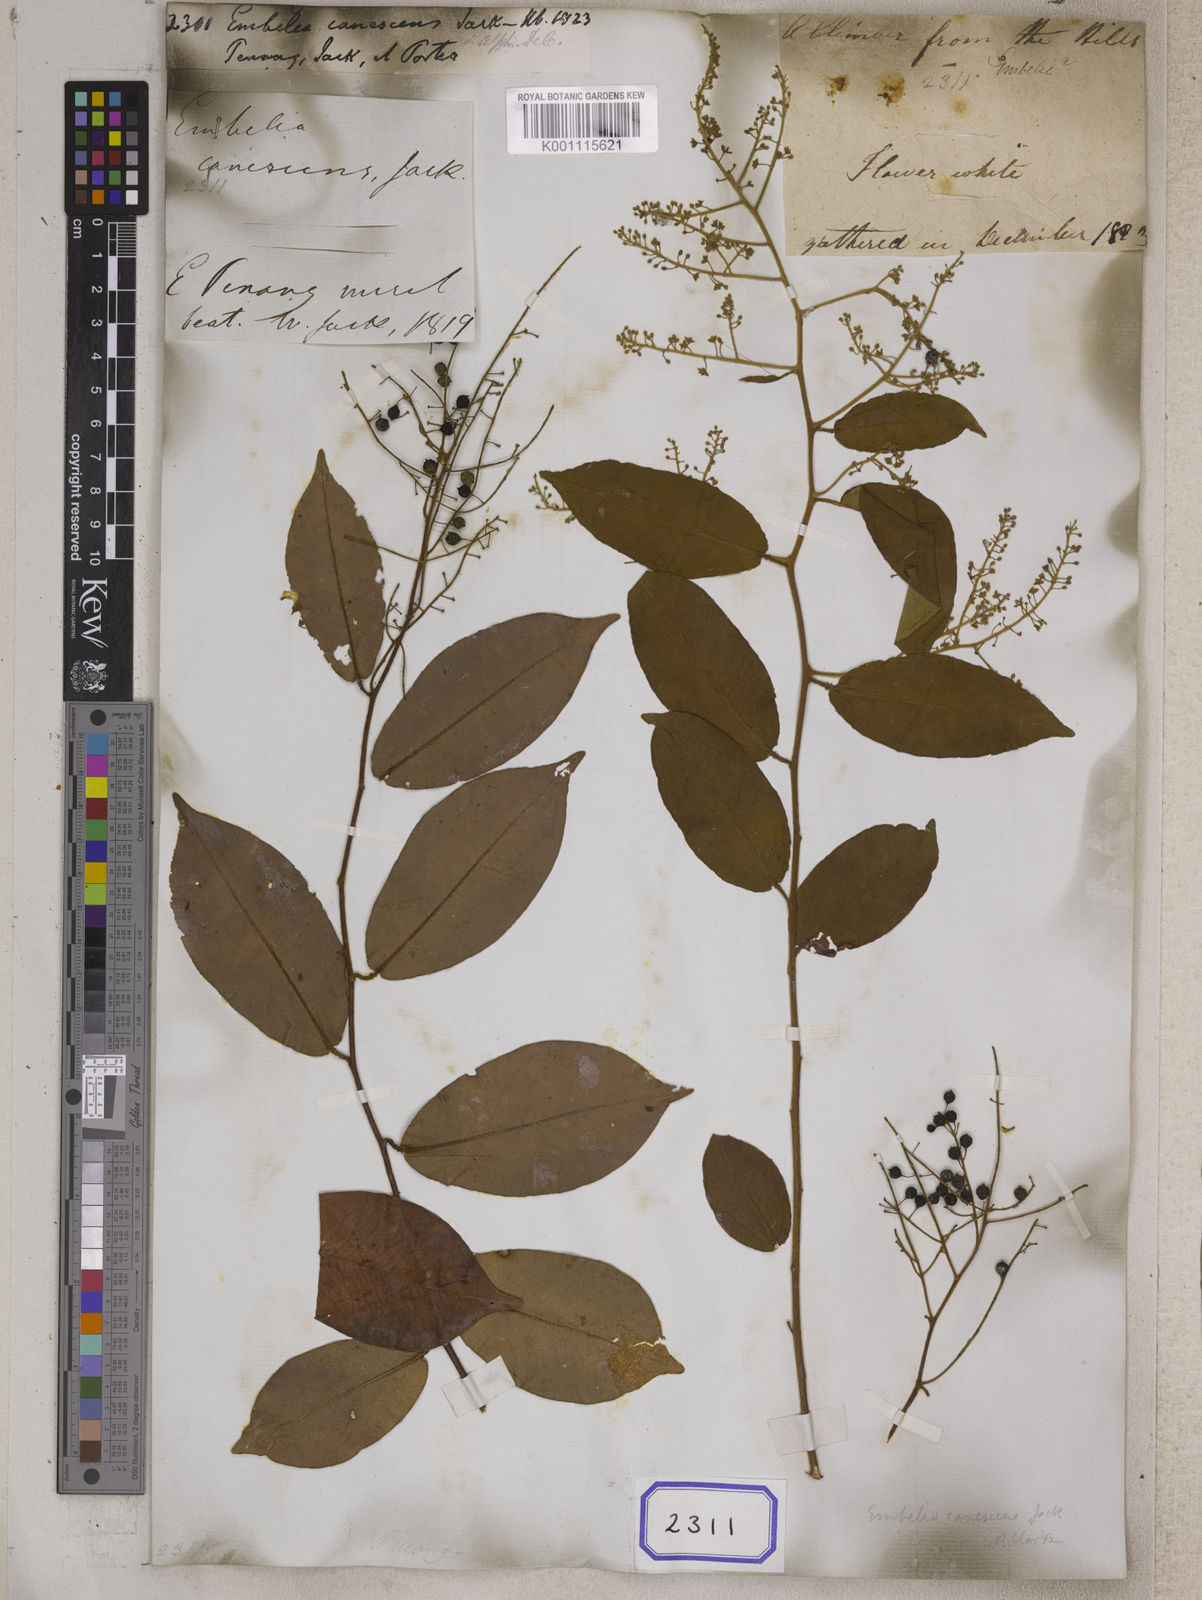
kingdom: Plantae
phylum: Tracheophyta
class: Magnoliopsida
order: Ericales
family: Primulaceae
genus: Embelia
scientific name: Embelia
